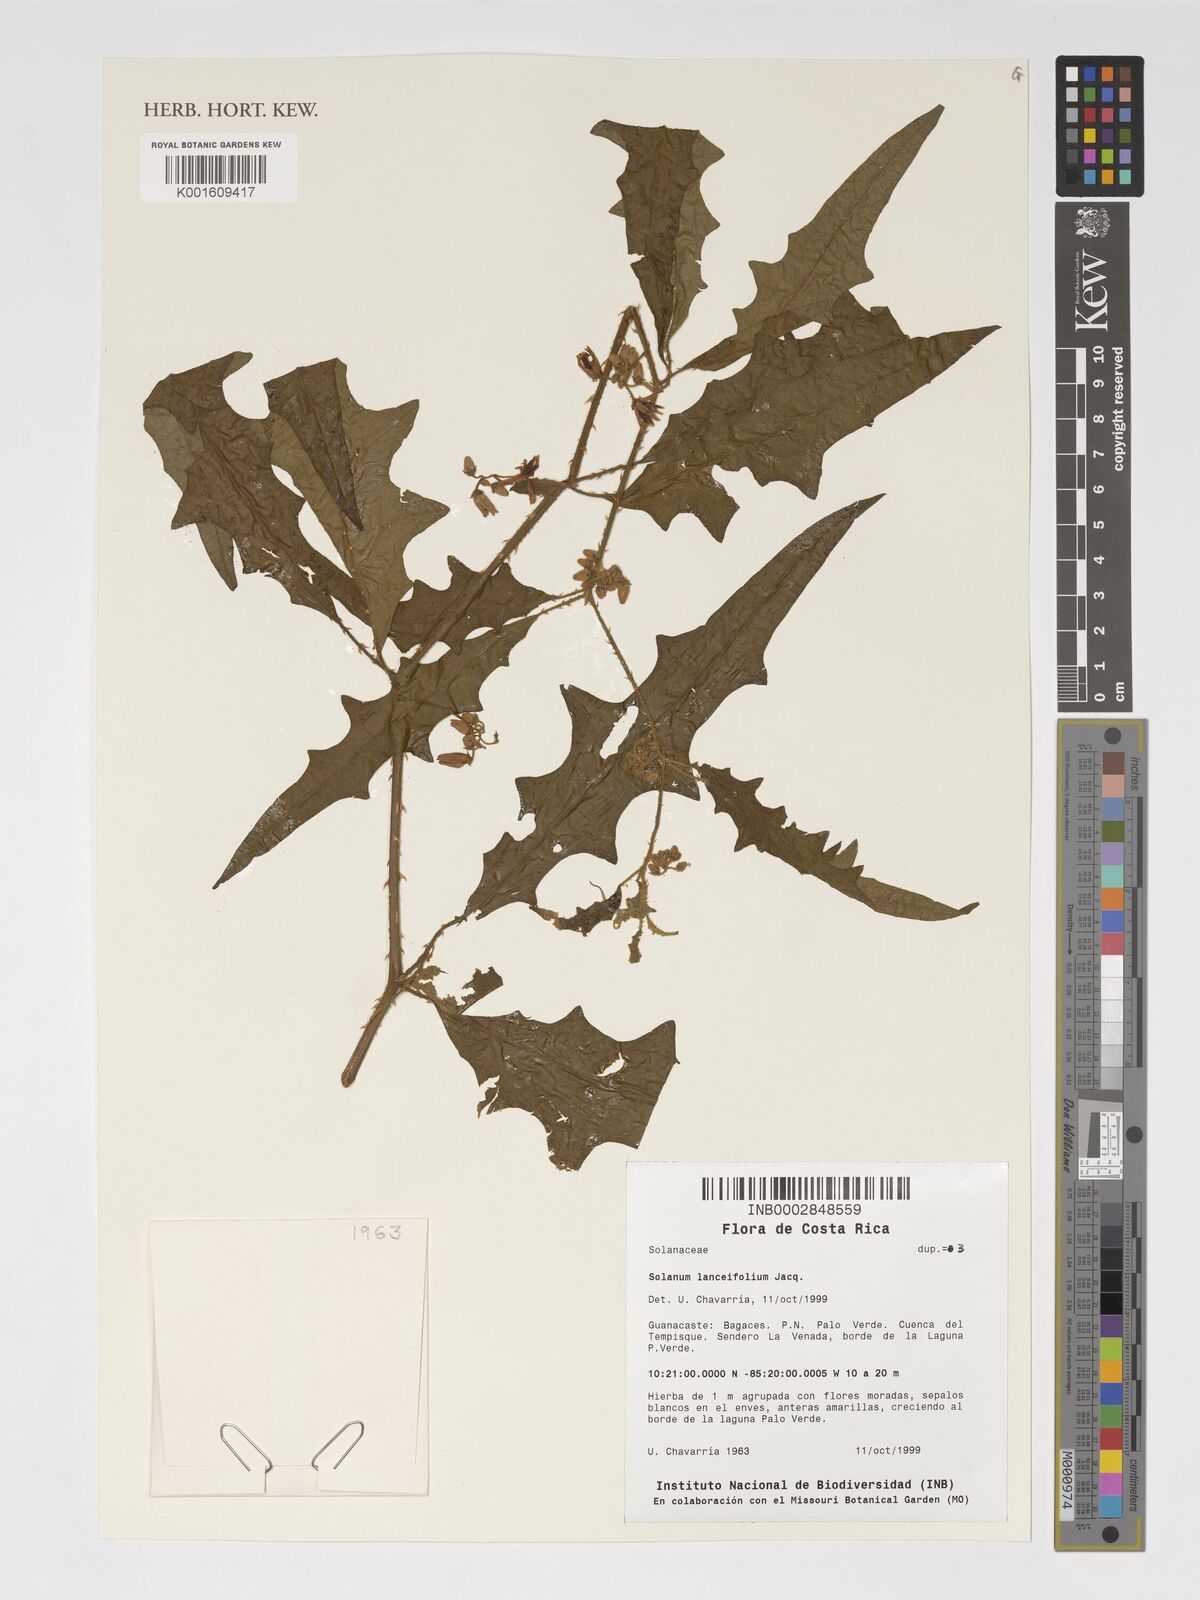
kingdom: Plantae
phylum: Tracheophyta
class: Magnoliopsida
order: Solanales
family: Solanaceae
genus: Solanum
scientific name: Solanum lanceifolium
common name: Lanceleaf nightshade
